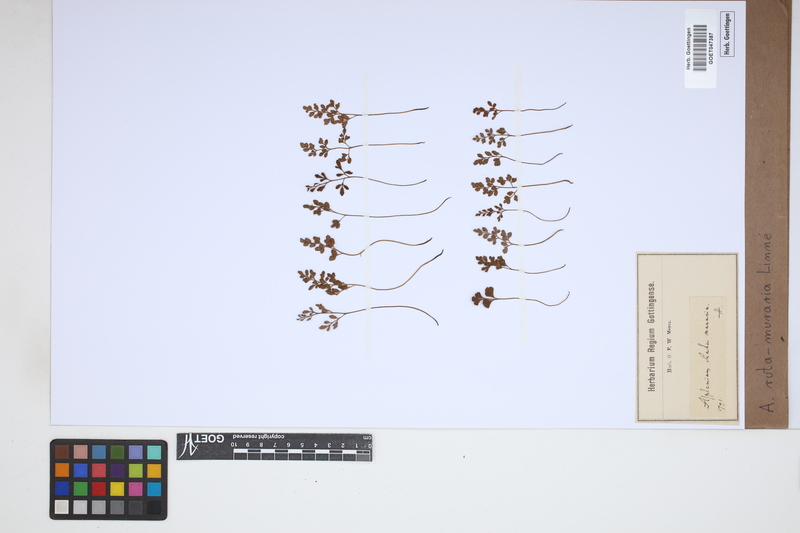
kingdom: Plantae
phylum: Tracheophyta
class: Polypodiopsida
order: Polypodiales
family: Aspleniaceae
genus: Asplenium
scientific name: Asplenium ruta-muraria
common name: Wall-rue
